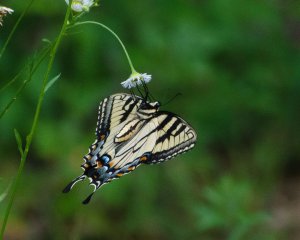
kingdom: Animalia
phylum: Arthropoda
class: Insecta
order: Lepidoptera
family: Papilionidae
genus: Pterourus
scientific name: Pterourus canadensis
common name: Canadian Tiger Swallowtail
